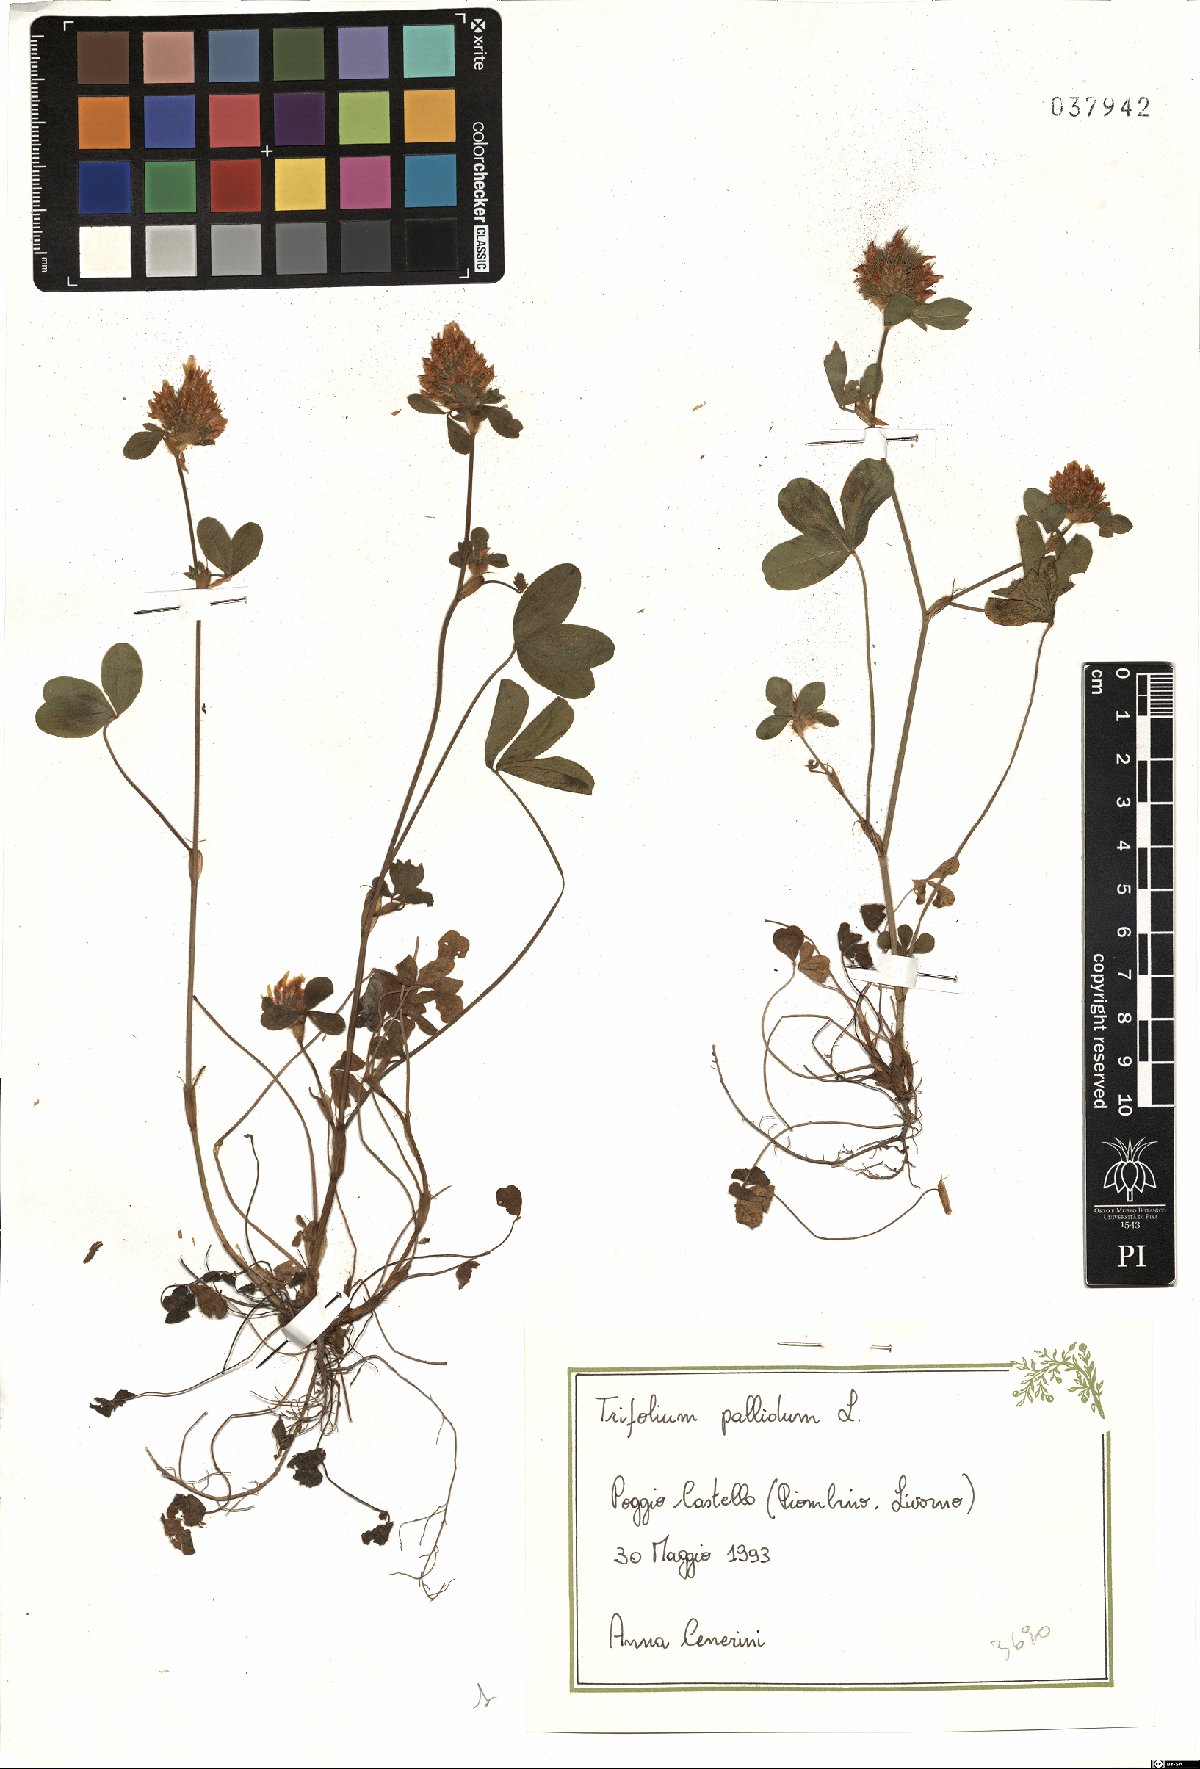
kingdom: Plantae
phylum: Tracheophyta
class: Magnoliopsida
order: Fabales
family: Fabaceae
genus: Trifolium
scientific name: Trifolium pallidum
